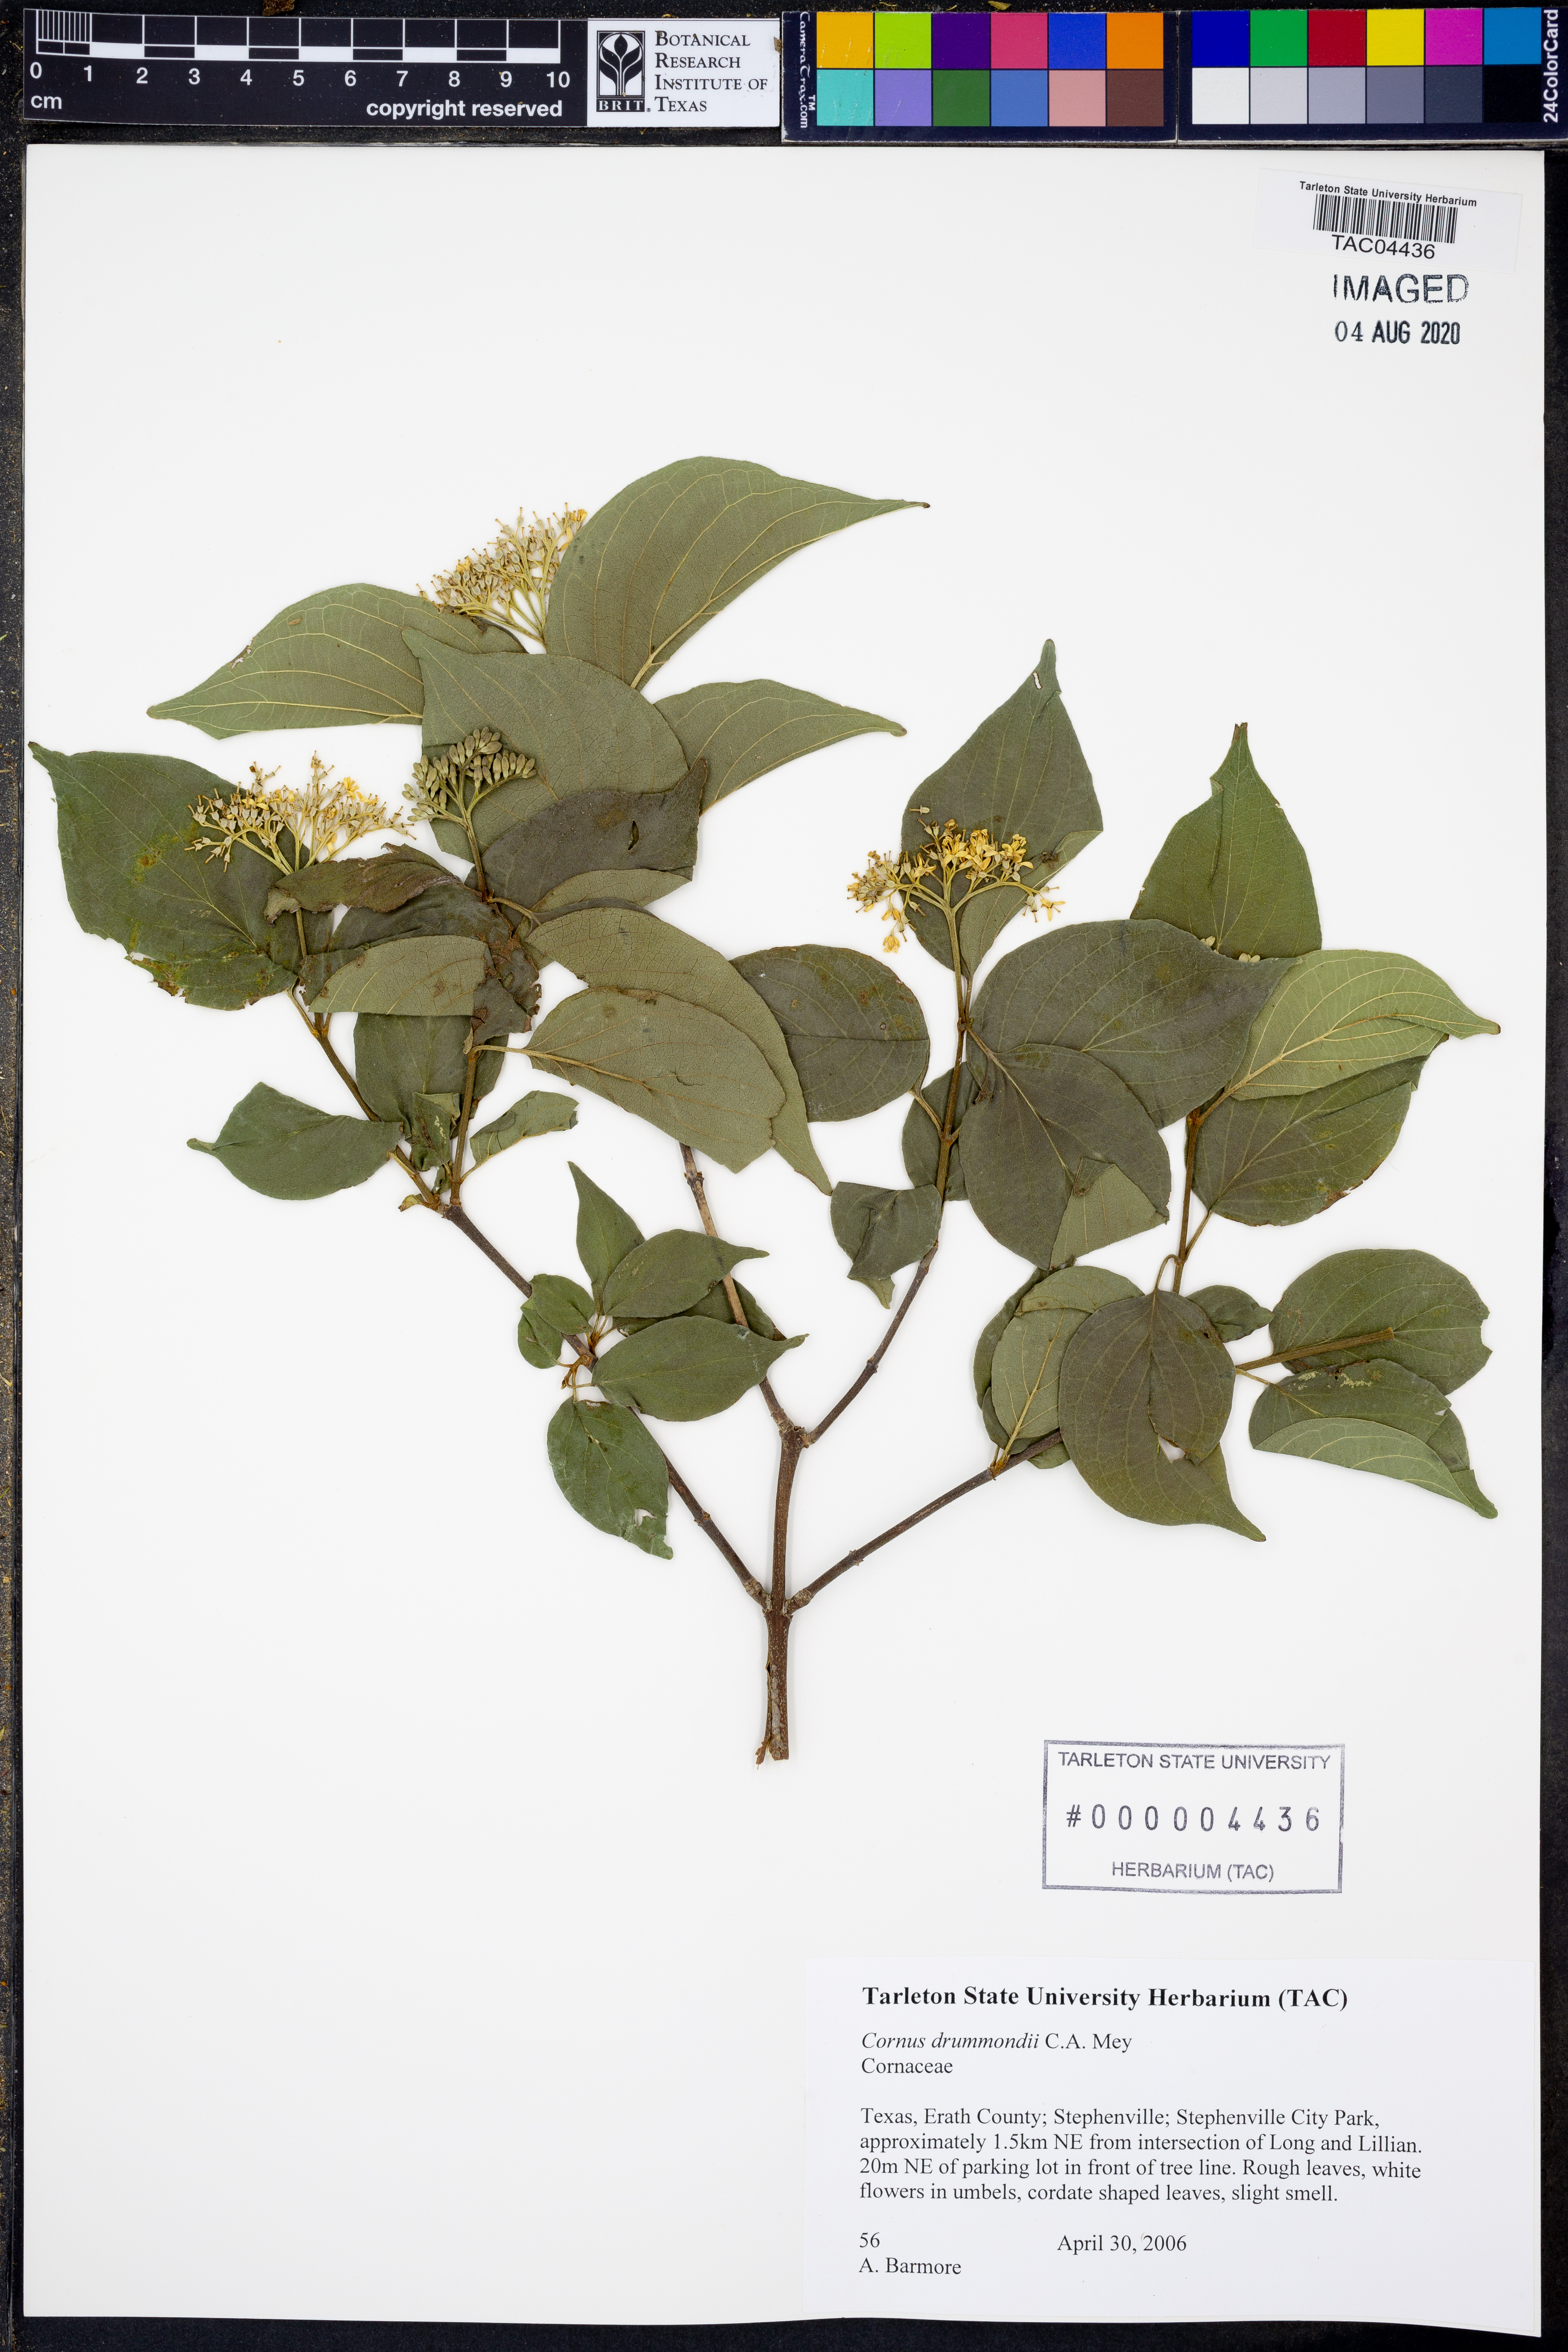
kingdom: Plantae
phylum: Tracheophyta
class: Magnoliopsida
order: Cornales
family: Cornaceae
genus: Cornus
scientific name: Cornus drummondii
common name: Rough-leaf dogwood
